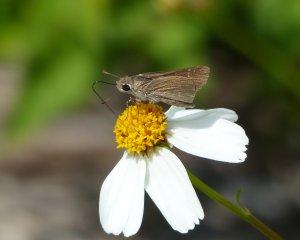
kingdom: Animalia
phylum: Arthropoda
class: Insecta
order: Lepidoptera
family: Hesperiidae
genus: Lerodea
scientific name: Lerodea eufala
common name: Eufala Skipper
